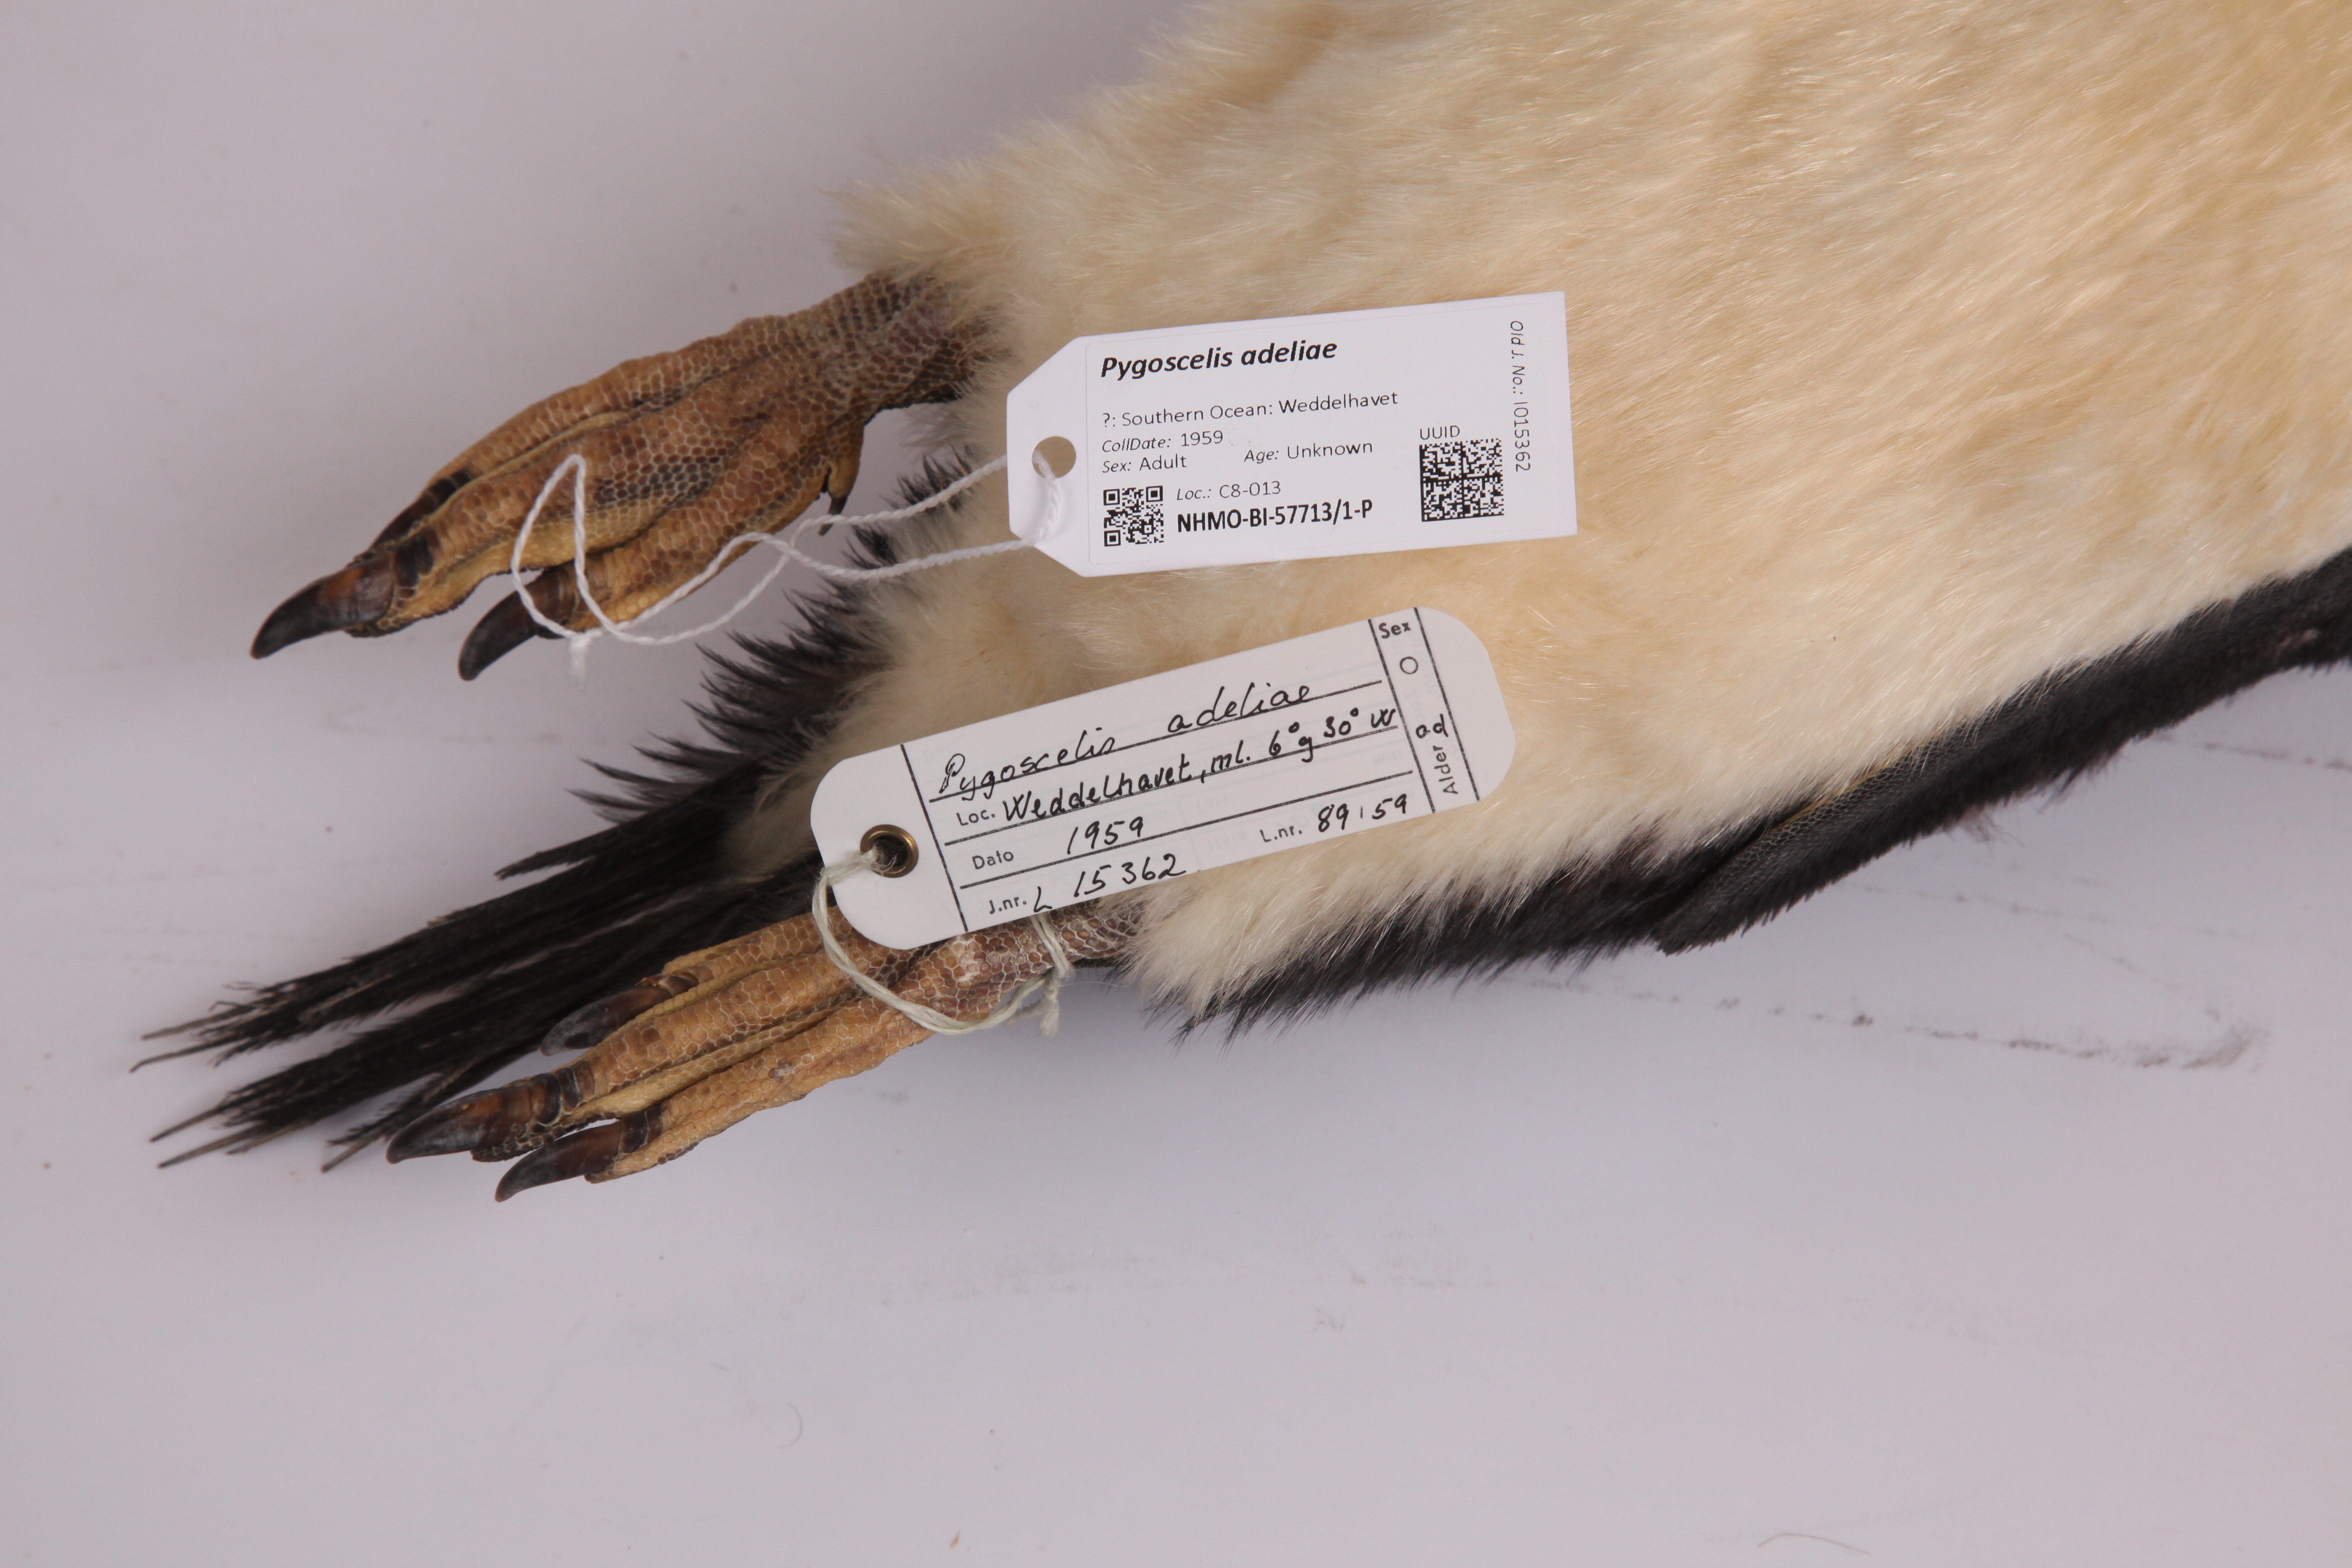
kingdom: Animalia
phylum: Chordata
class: Aves
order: Sphenisciformes
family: Spheniscidae
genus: Pygoscelis
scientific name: Pygoscelis adeliae
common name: Adelie penguin
